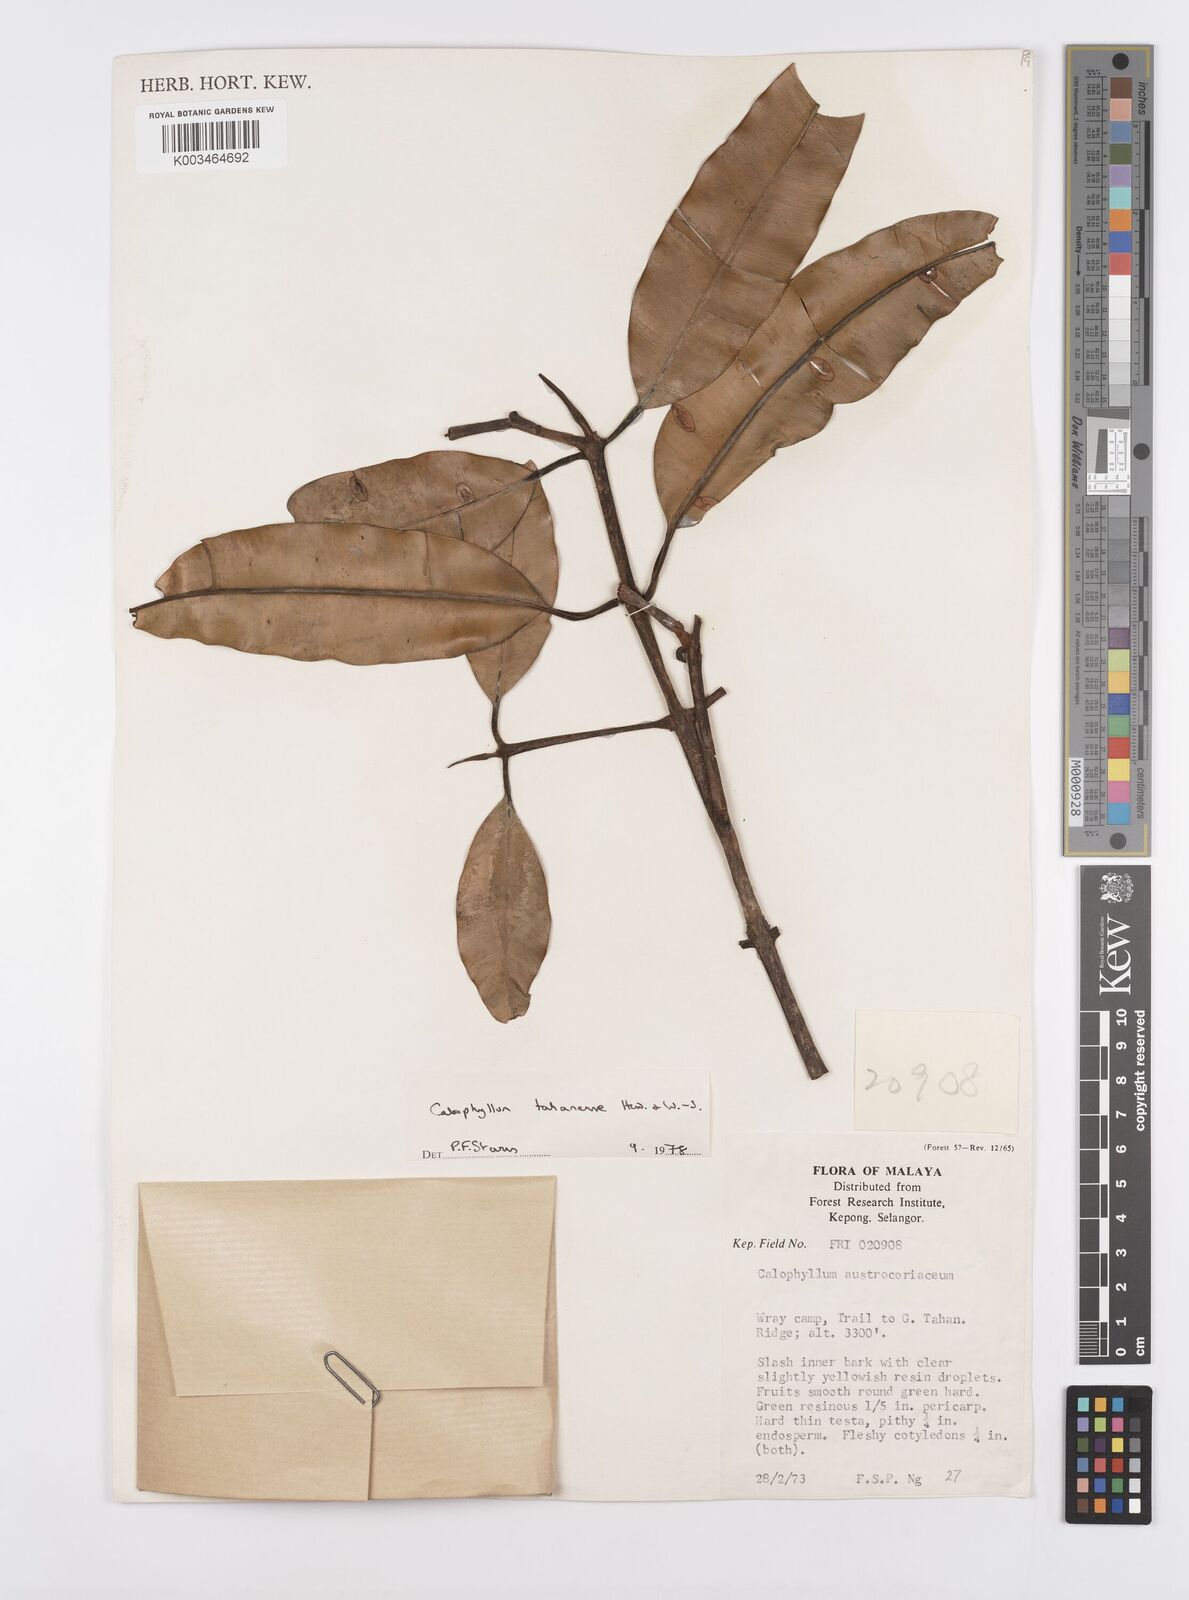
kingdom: Plantae
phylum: Tracheophyta
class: Magnoliopsida
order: Malpighiales
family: Calophyllaceae
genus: Calophyllum
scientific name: Calophyllum wallichiana
